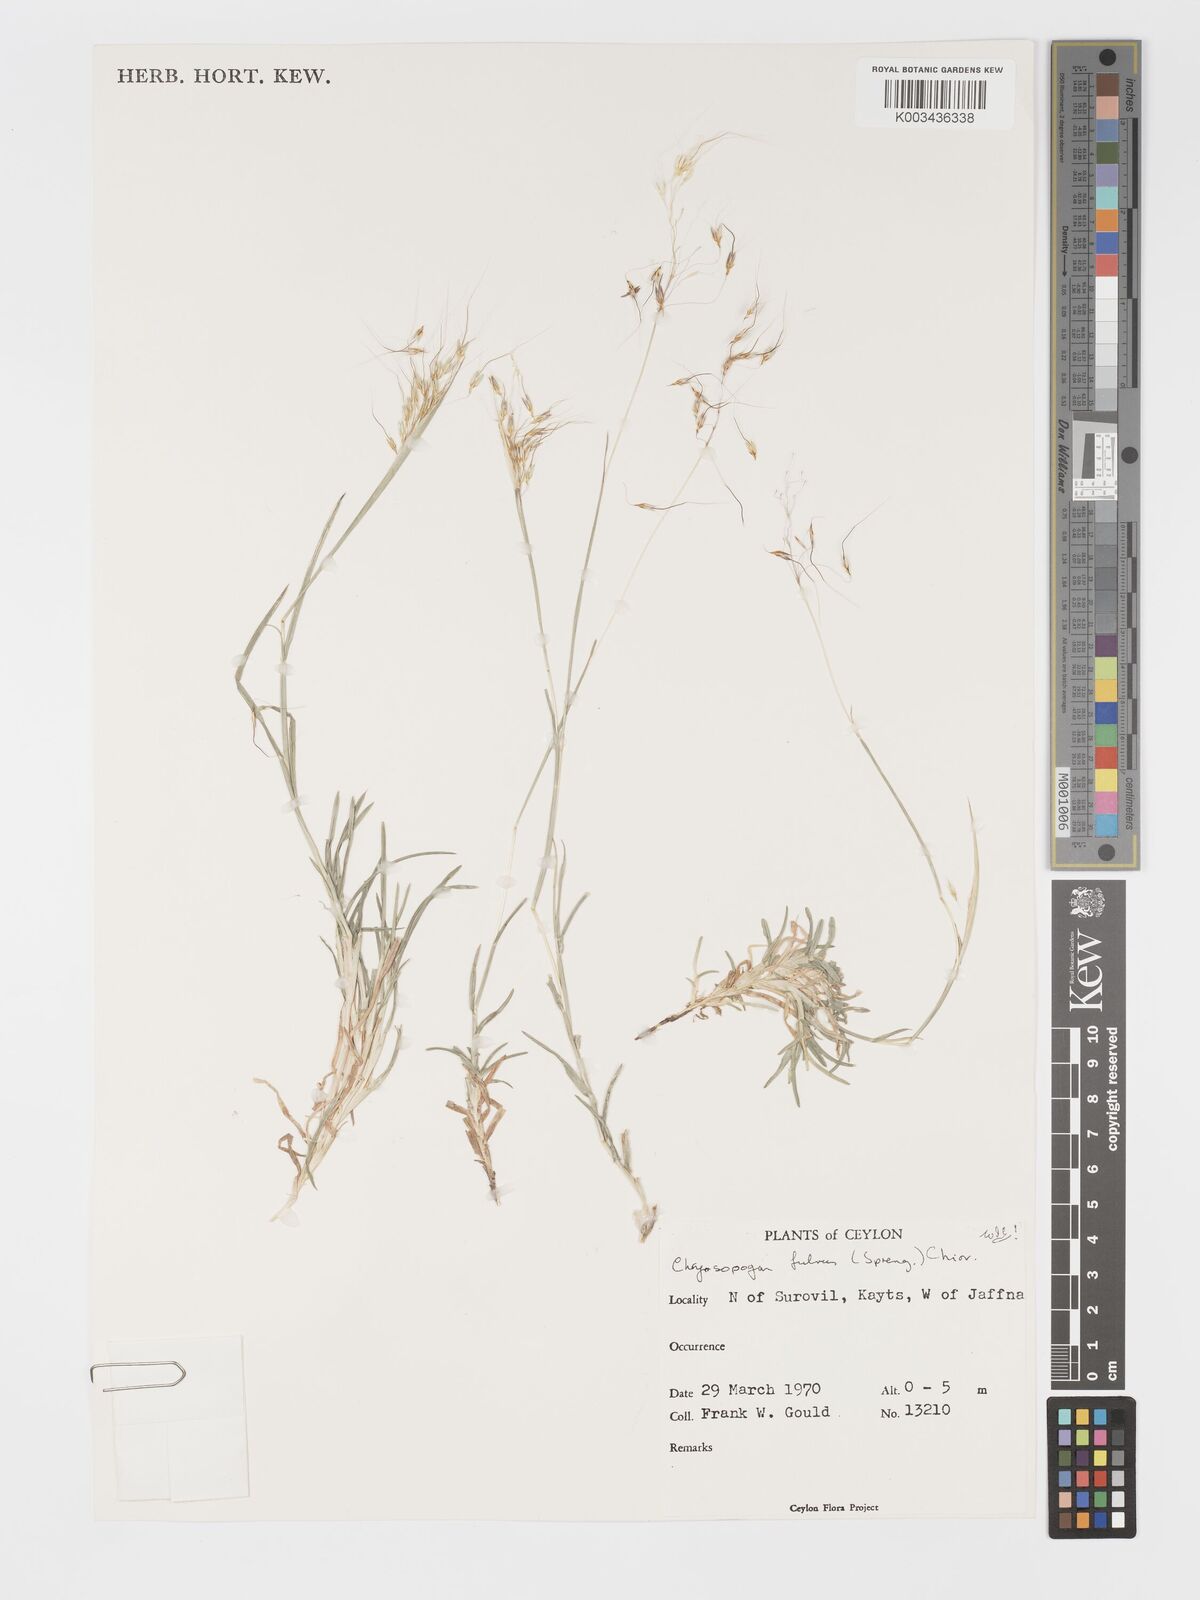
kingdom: Plantae
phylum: Tracheophyta
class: Liliopsida
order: Poales
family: Poaceae
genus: Chrysopogon
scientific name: Chrysopogon fulvus
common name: Red false beardgrass
